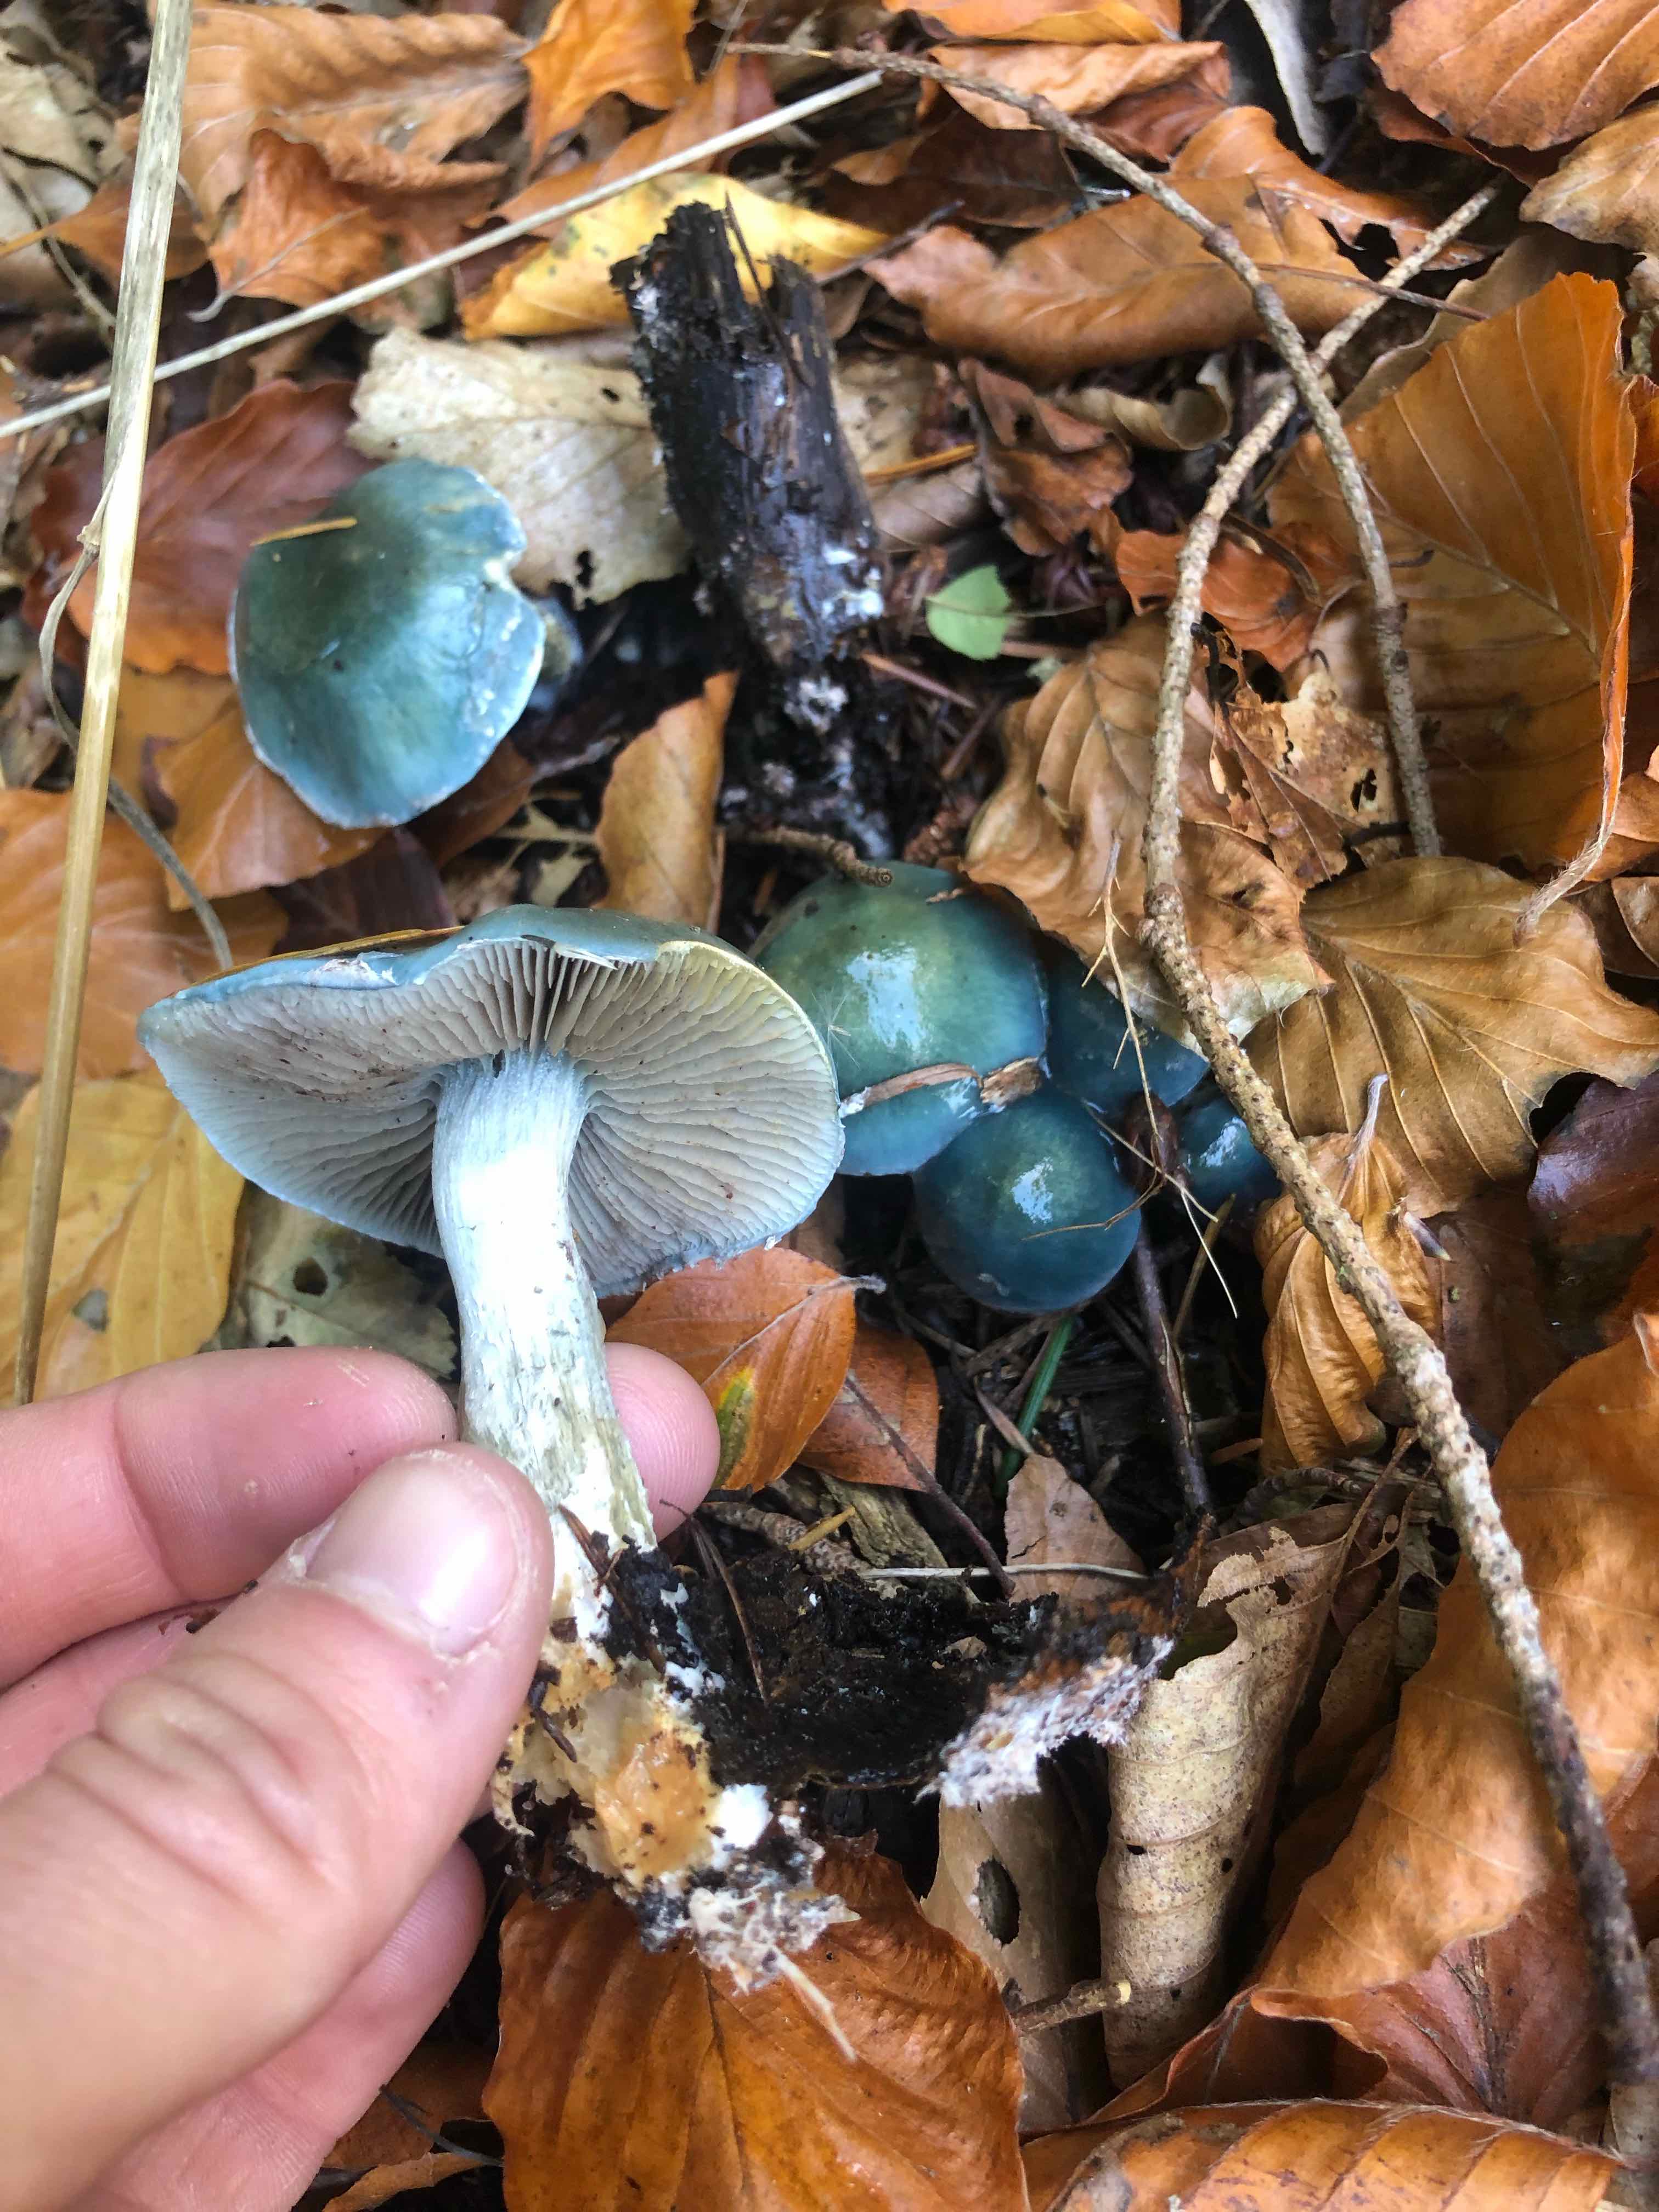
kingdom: Fungi
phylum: Basidiomycota
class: Agaricomycetes
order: Agaricales
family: Strophariaceae
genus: Stropharia
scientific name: Stropharia cyanea
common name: blågrøn bredblad
